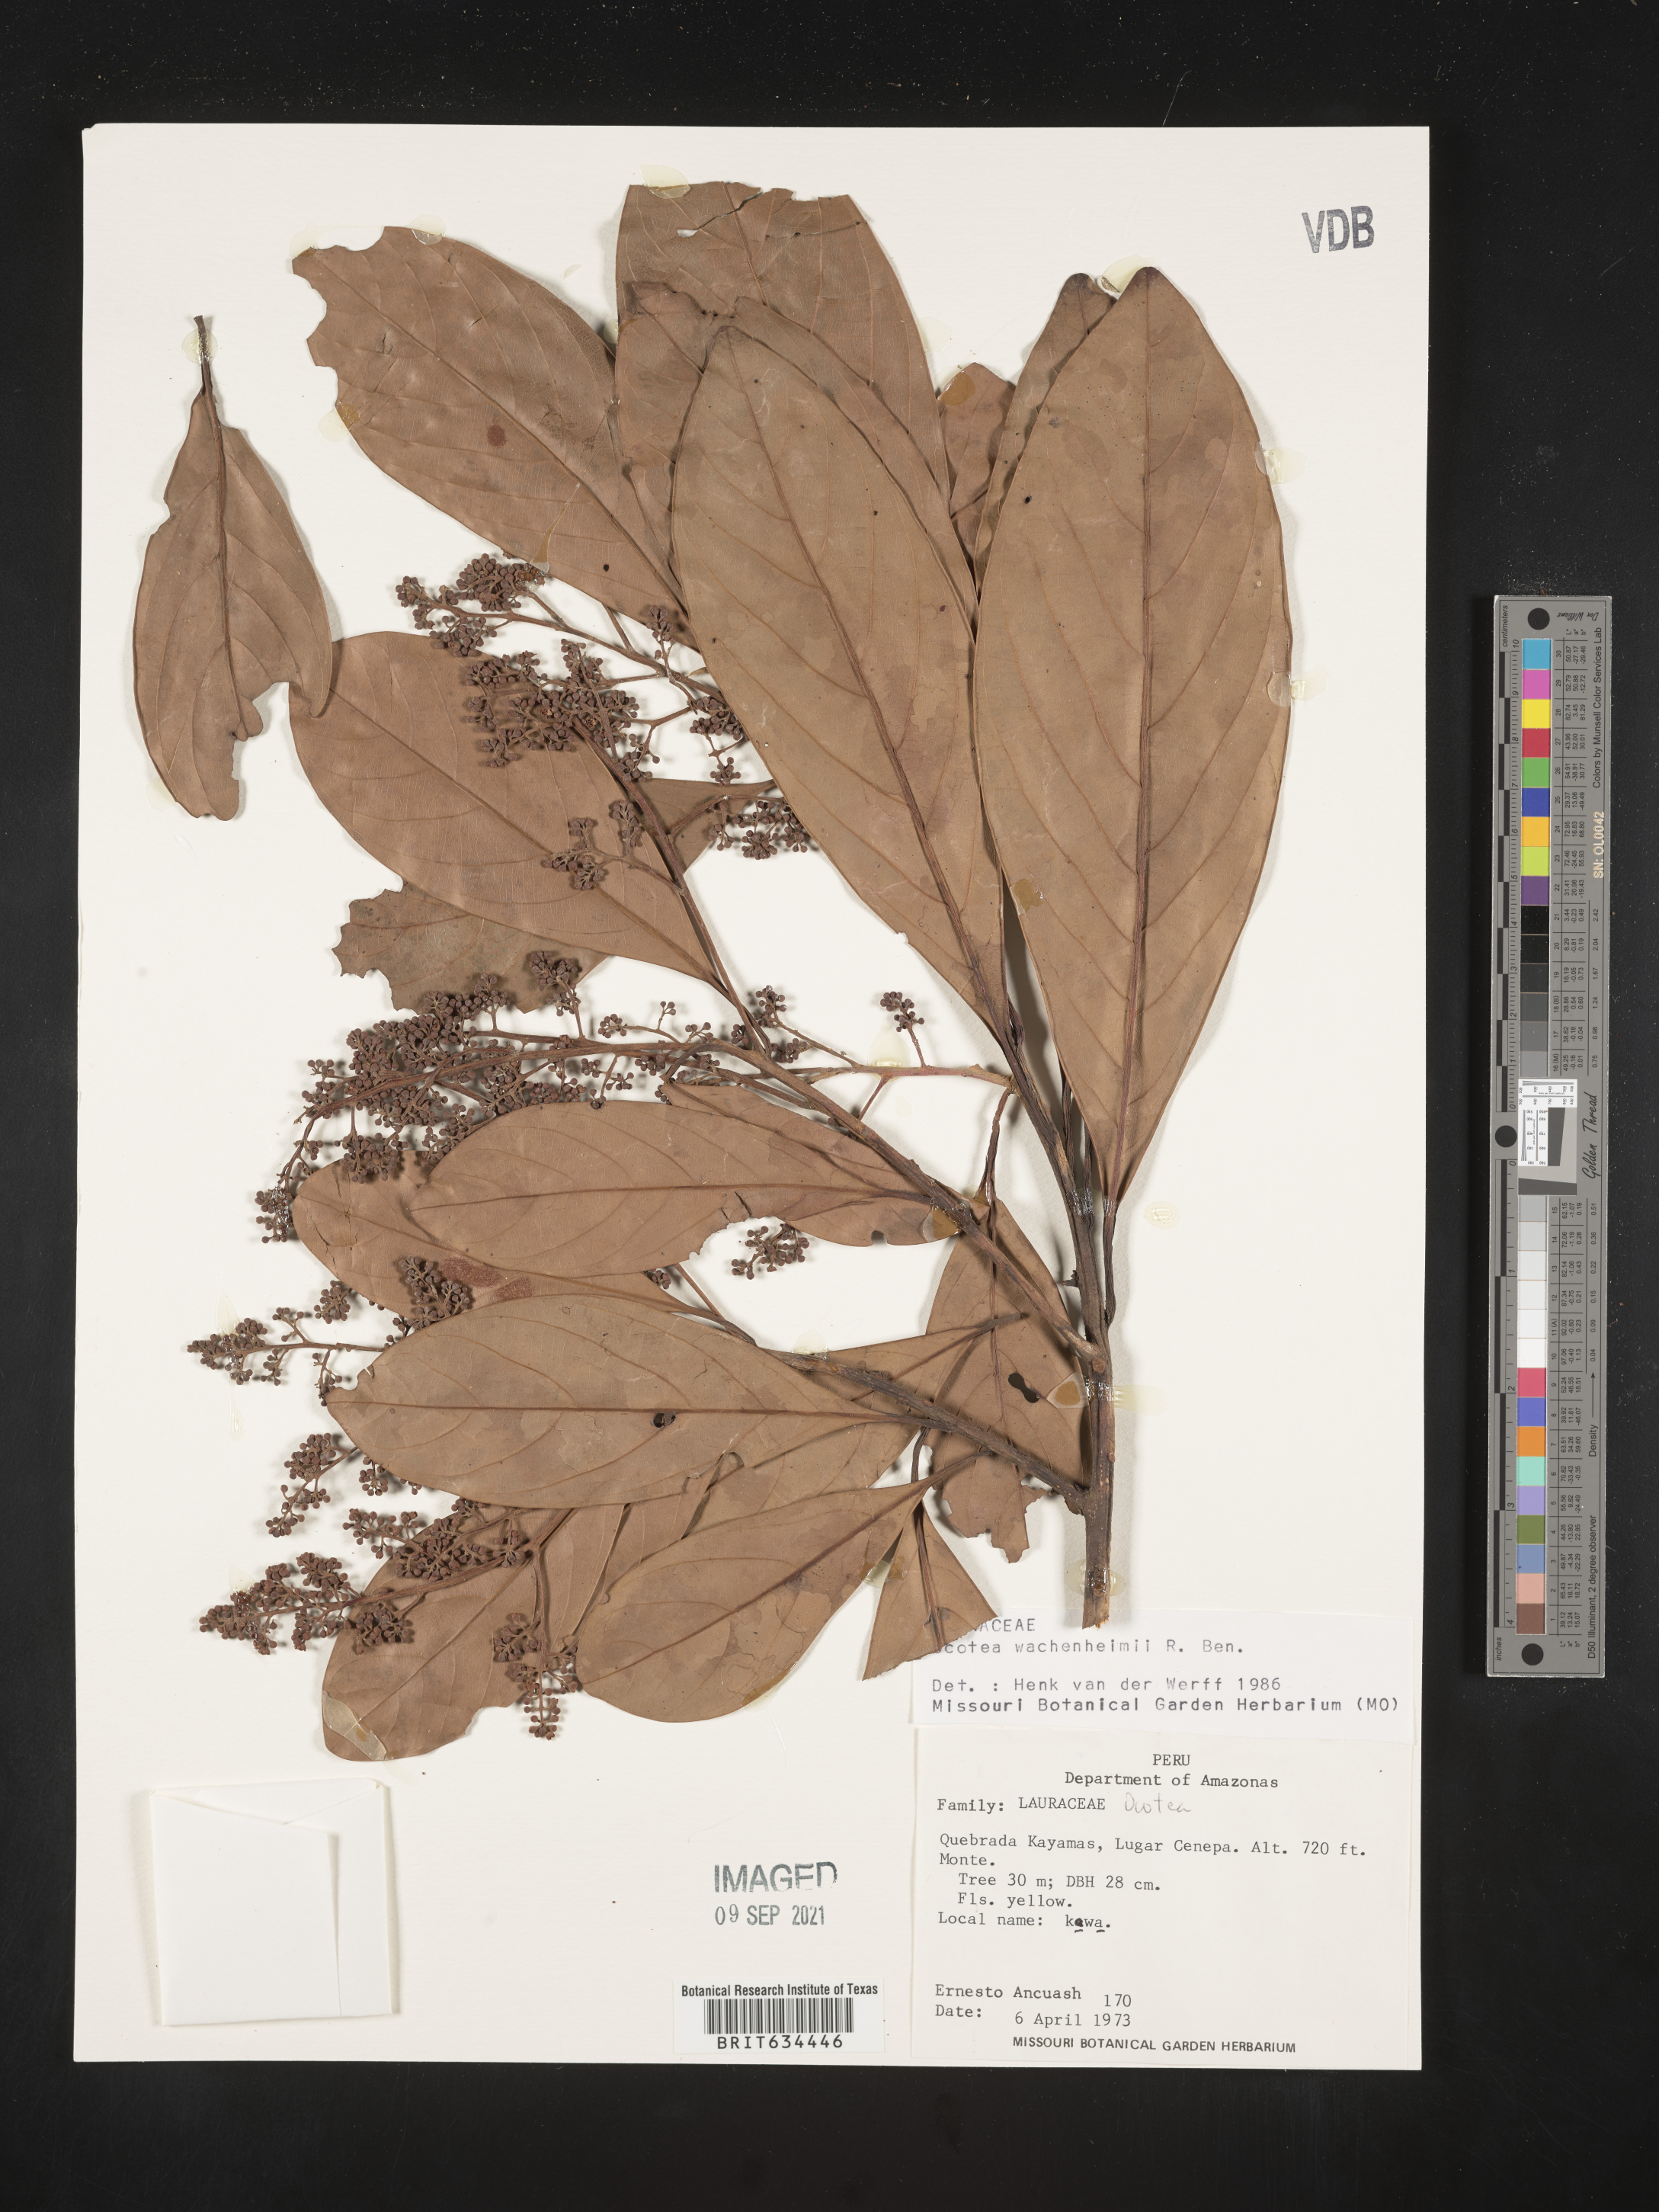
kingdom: Plantae
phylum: Tracheophyta
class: Magnoliopsida
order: Laurales
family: Lauraceae
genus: Ocotea
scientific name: Ocotea
